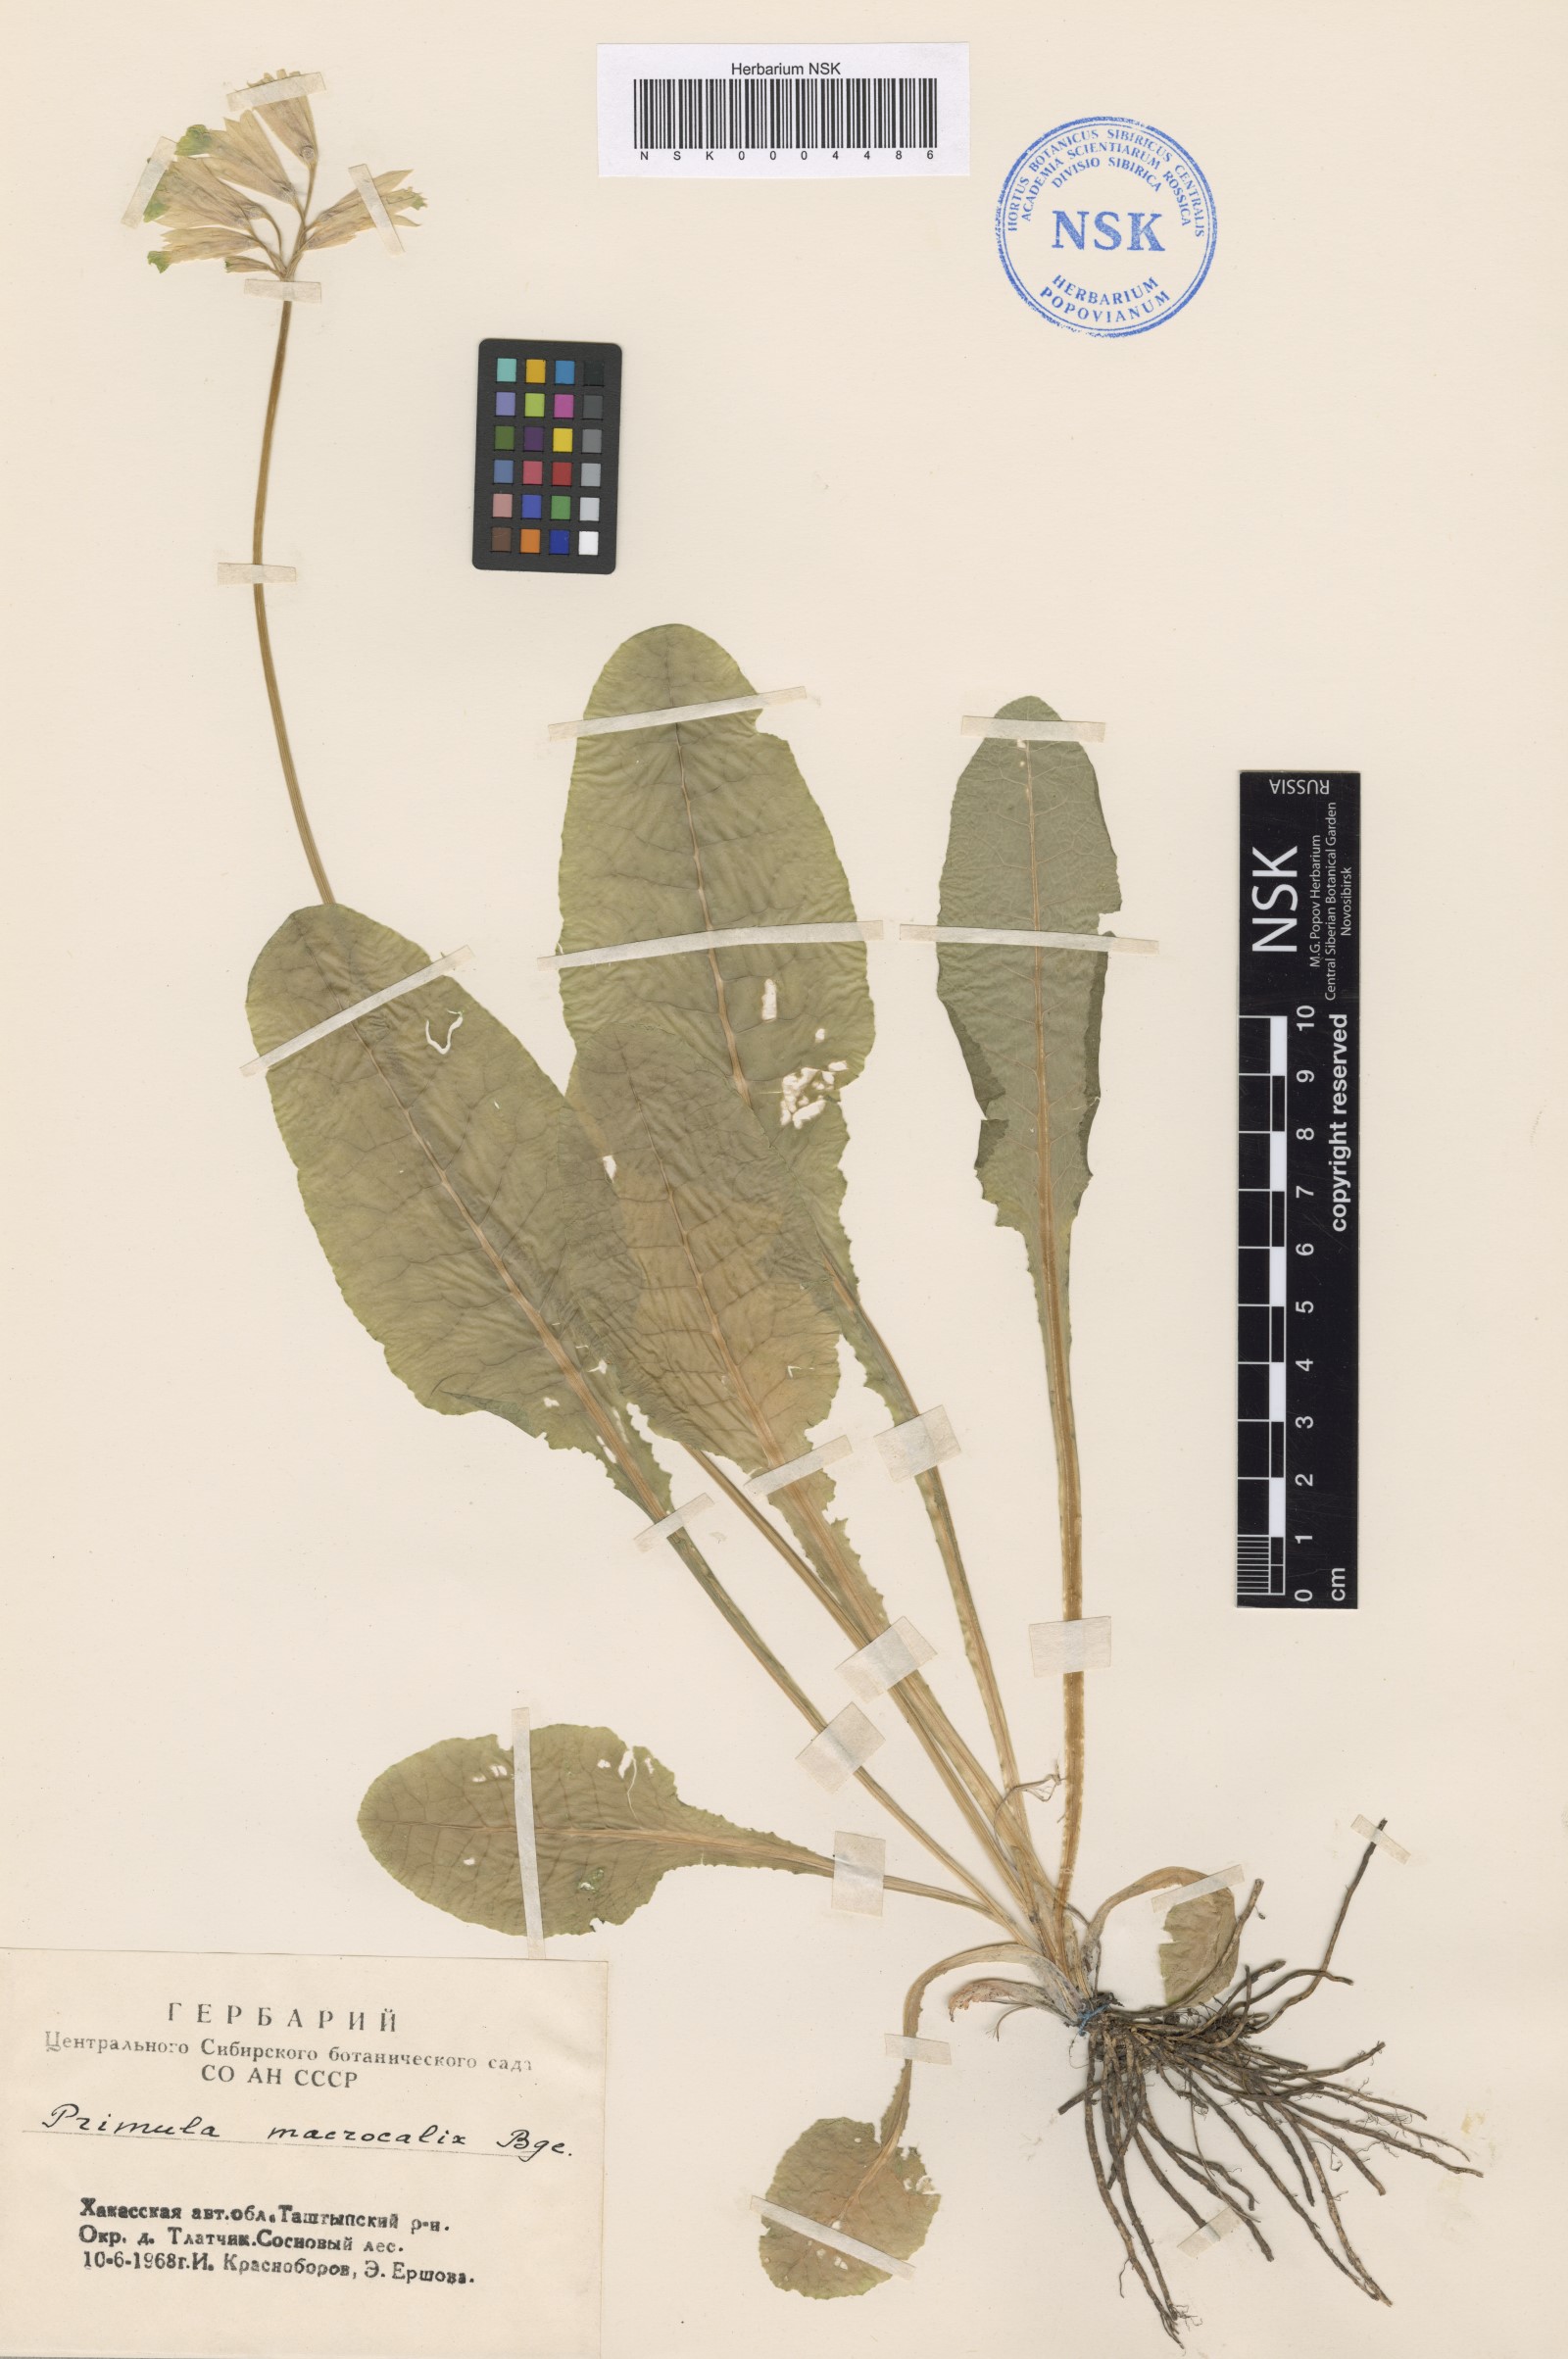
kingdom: Plantae
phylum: Tracheophyta
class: Magnoliopsida
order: Ericales
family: Primulaceae
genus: Primula
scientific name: Primula veris
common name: Cowslip
